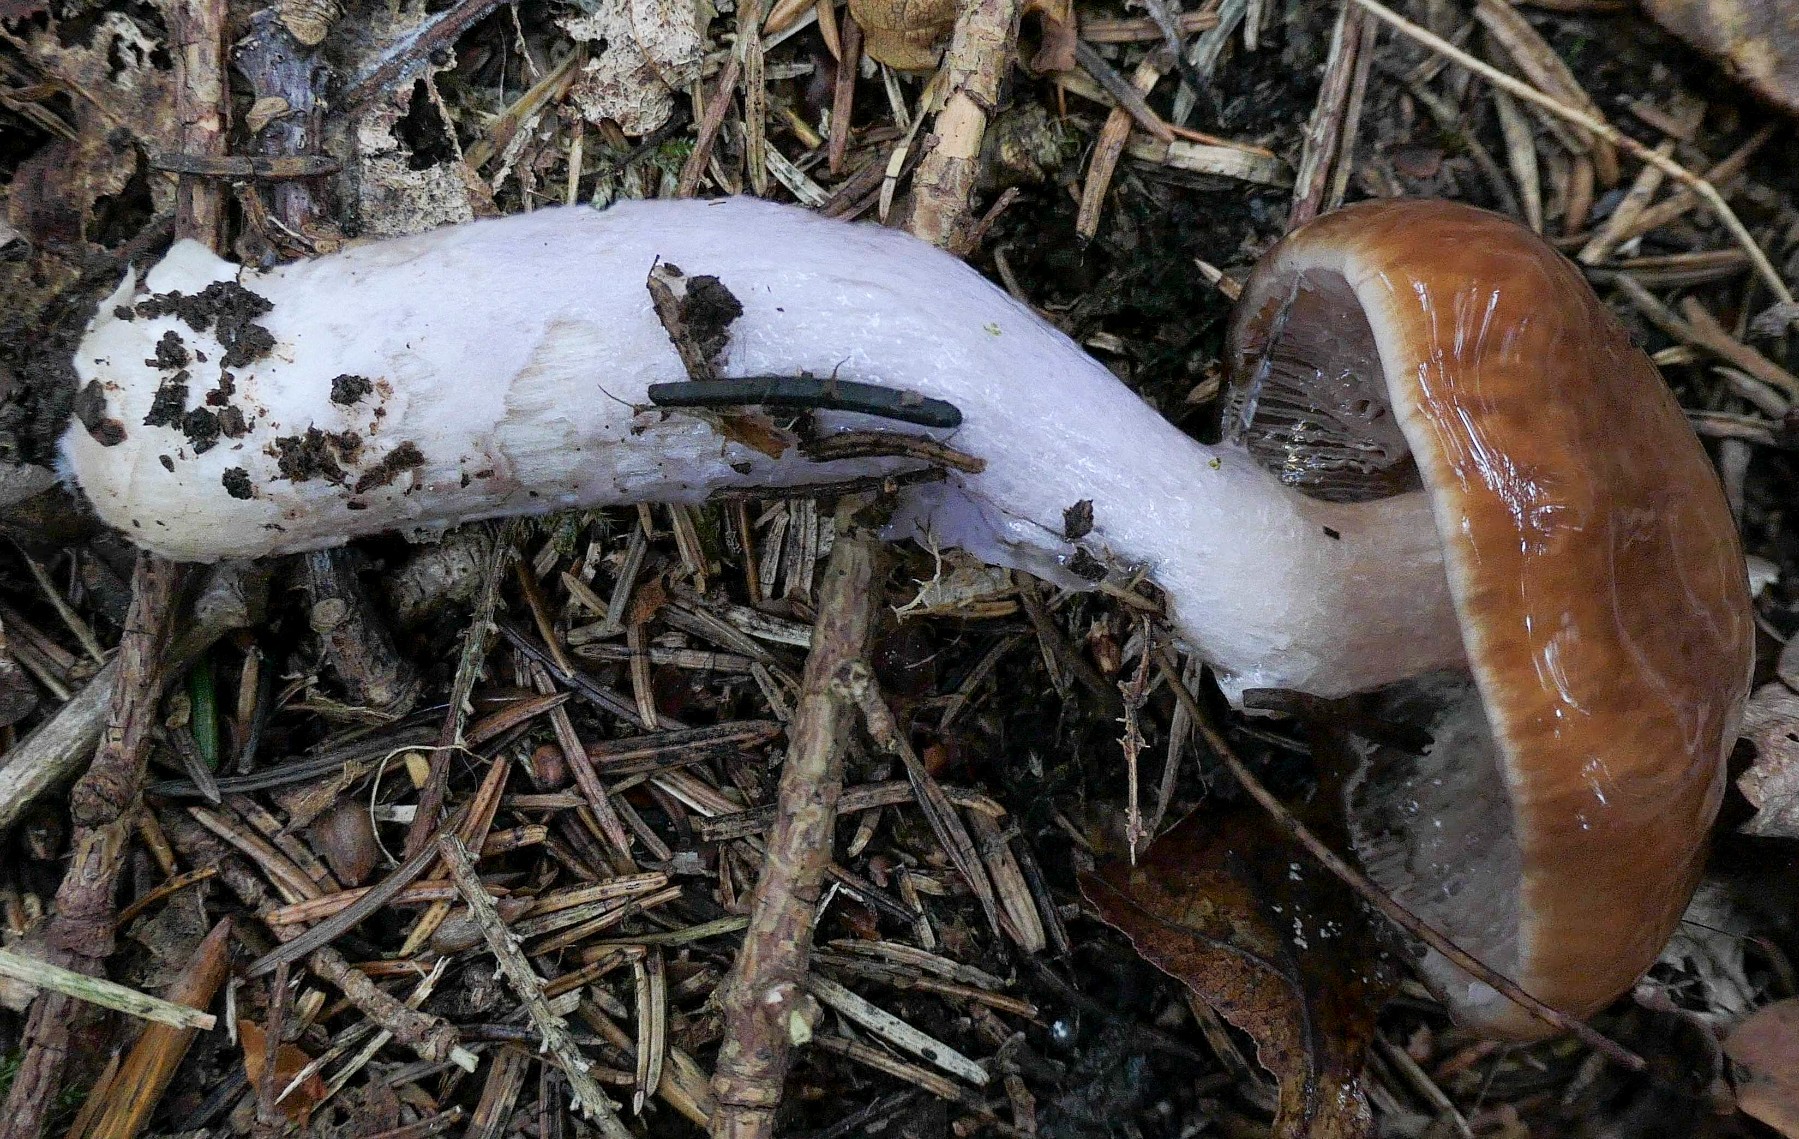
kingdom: Fungi
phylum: Basidiomycota
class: Agaricomycetes
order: Agaricales
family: Cortinariaceae
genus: Cortinarius
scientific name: Cortinarius stillatitius
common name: honningduftende slørhat
